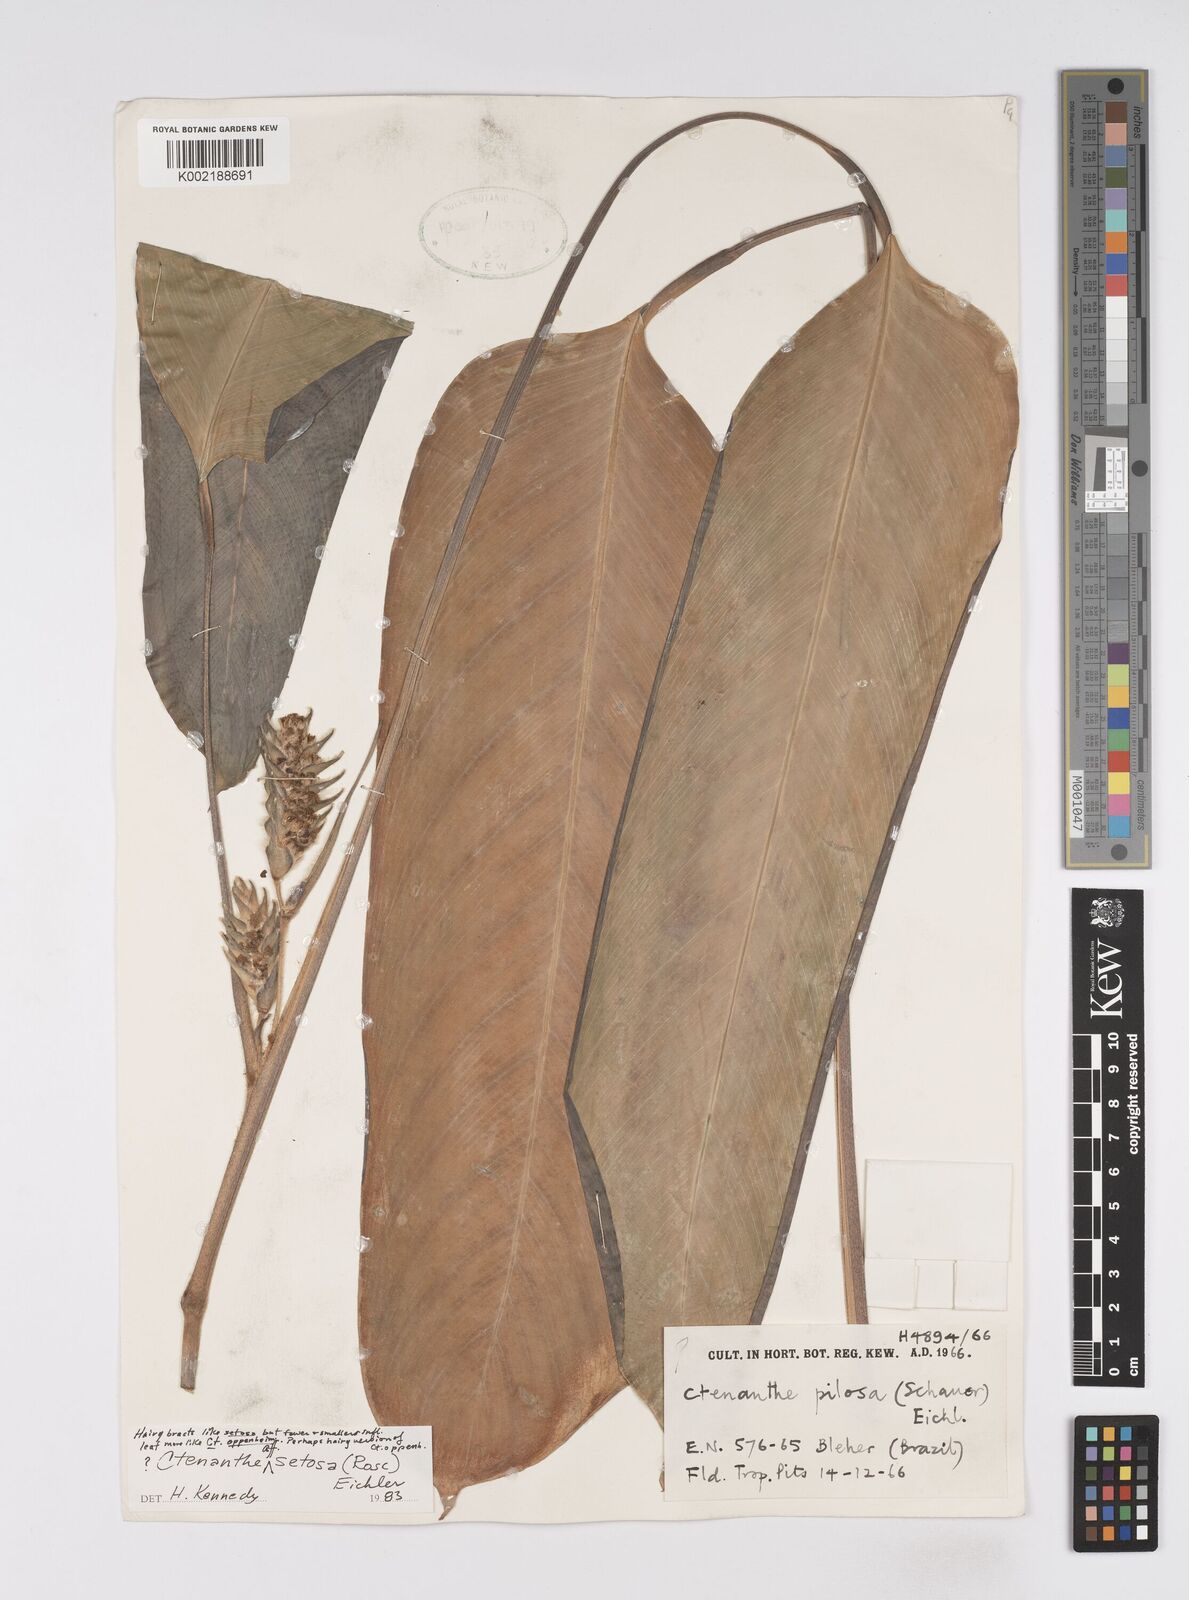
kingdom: Plantae
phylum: Tracheophyta
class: Liliopsida
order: Zingiberales
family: Marantaceae
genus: Ctenanthe
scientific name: Ctenanthe
